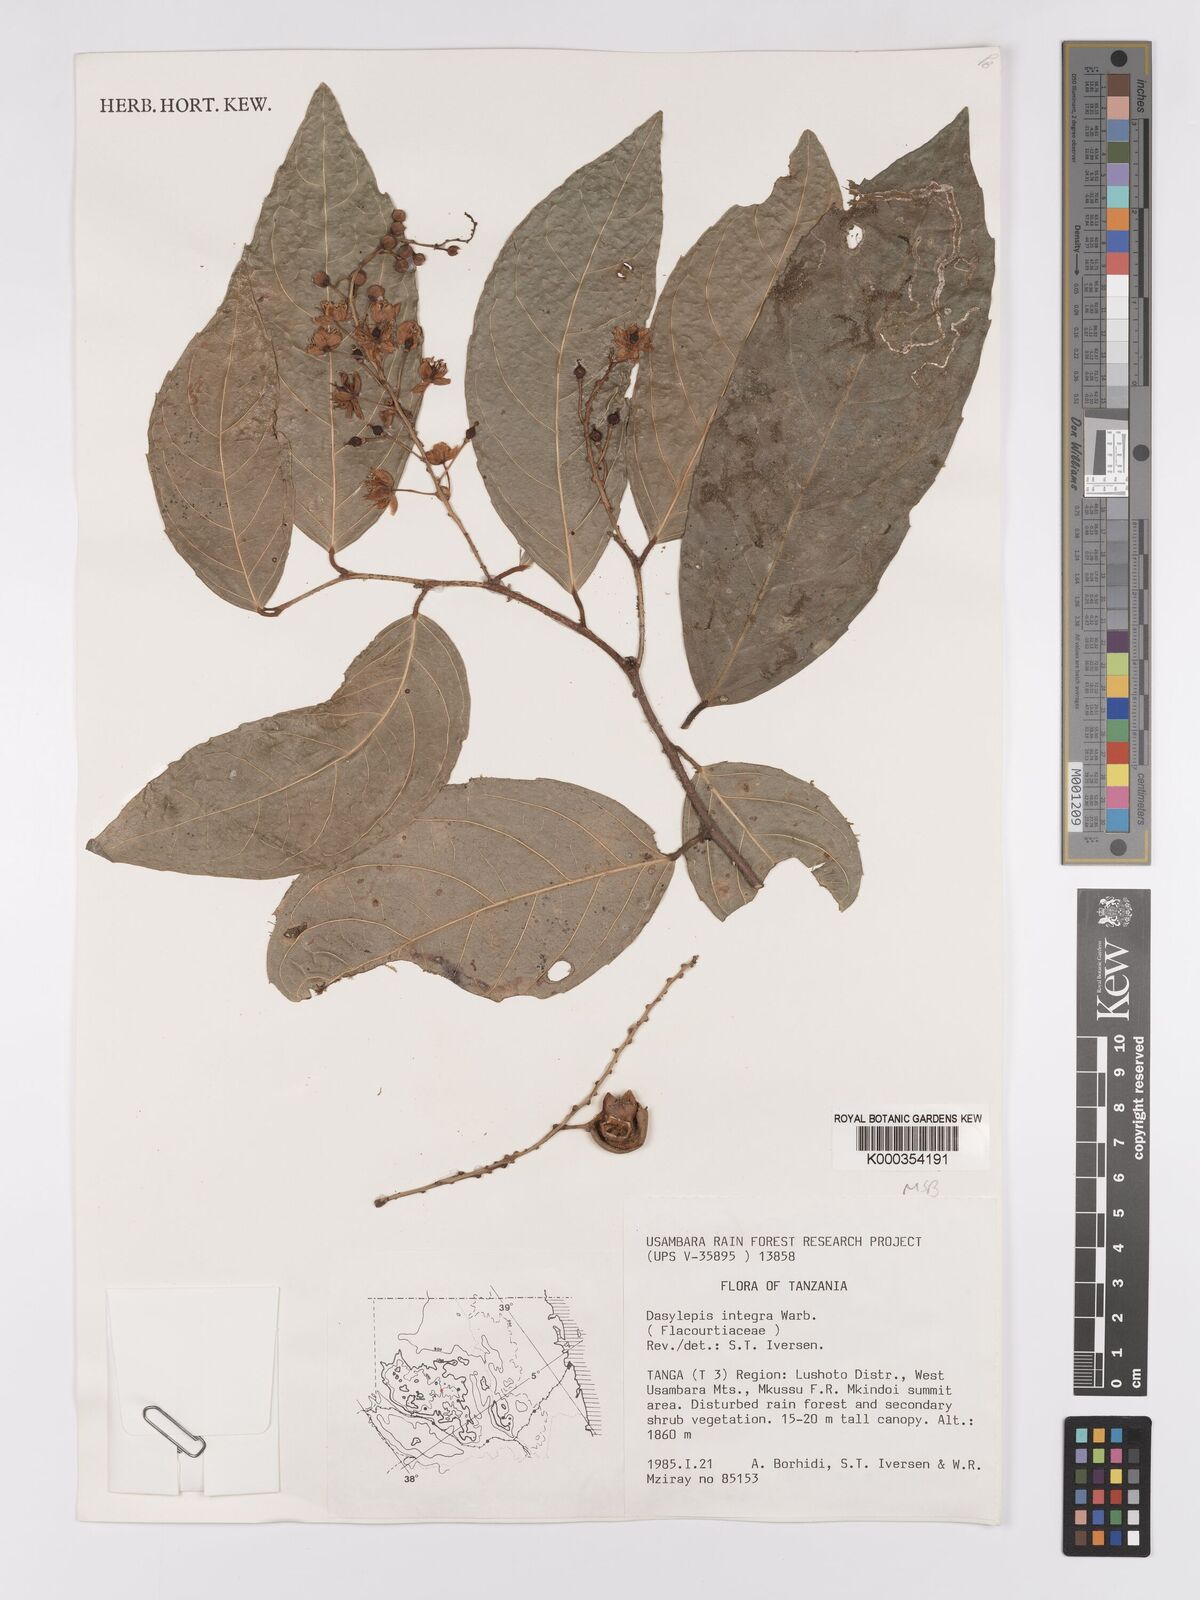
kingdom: Plantae
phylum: Tracheophyta
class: Magnoliopsida
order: Malpighiales
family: Achariaceae
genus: Dasylepis
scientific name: Dasylepis integra
